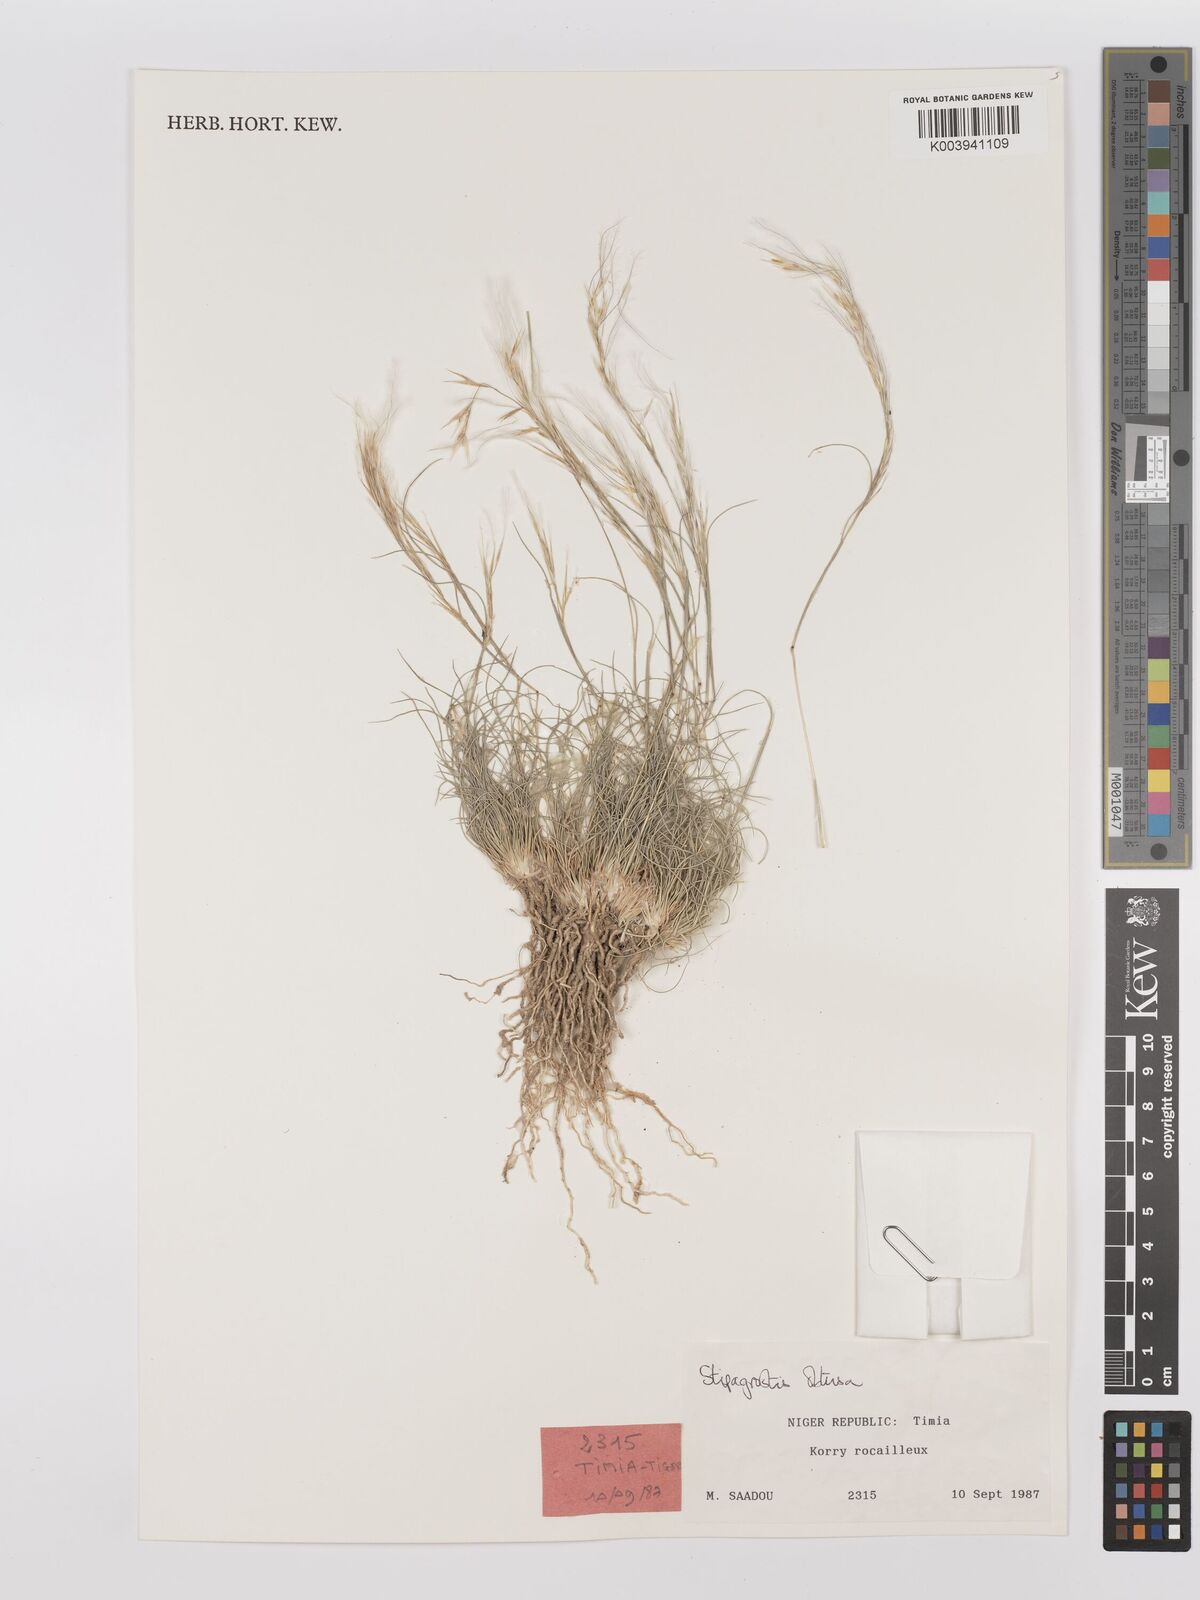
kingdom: Plantae
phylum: Tracheophyta
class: Liliopsida
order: Poales
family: Poaceae
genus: Stipagrostis
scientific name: Stipagrostis obtusa
